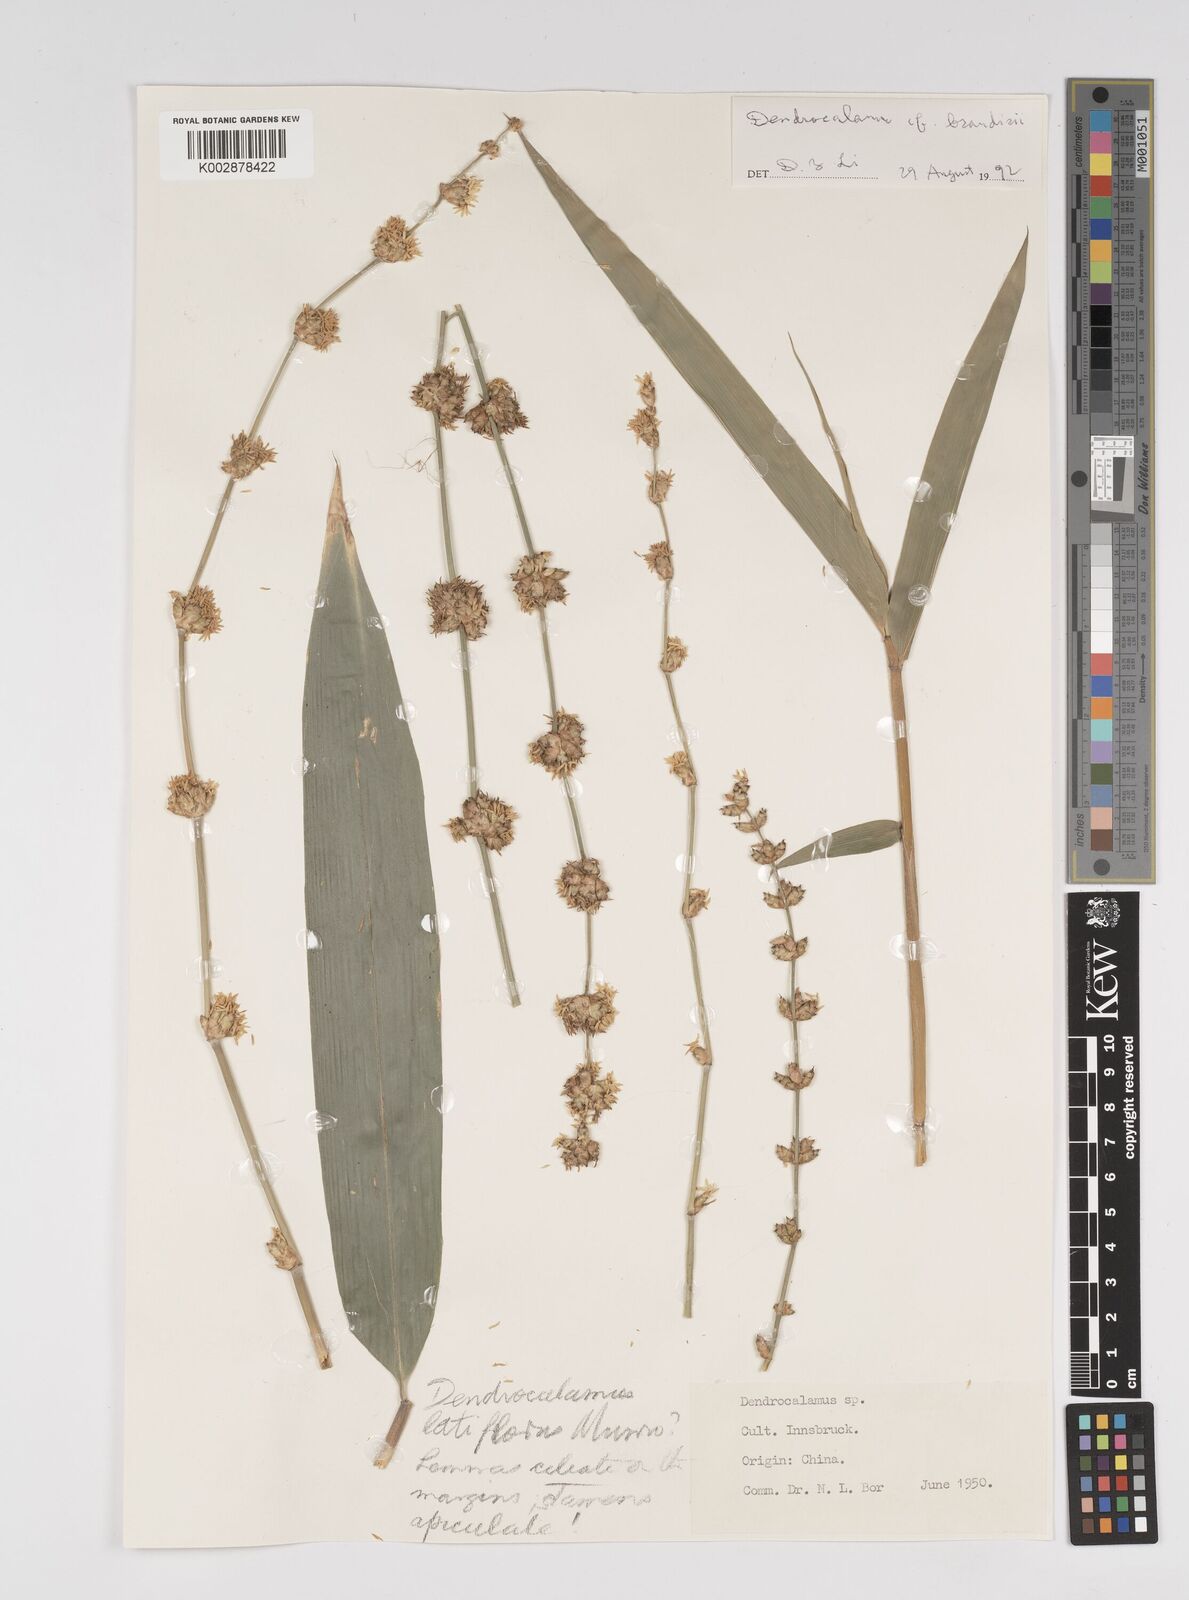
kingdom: Plantae
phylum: Tracheophyta
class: Liliopsida
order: Poales
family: Poaceae
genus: Dendrocalamus
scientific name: Dendrocalamus
